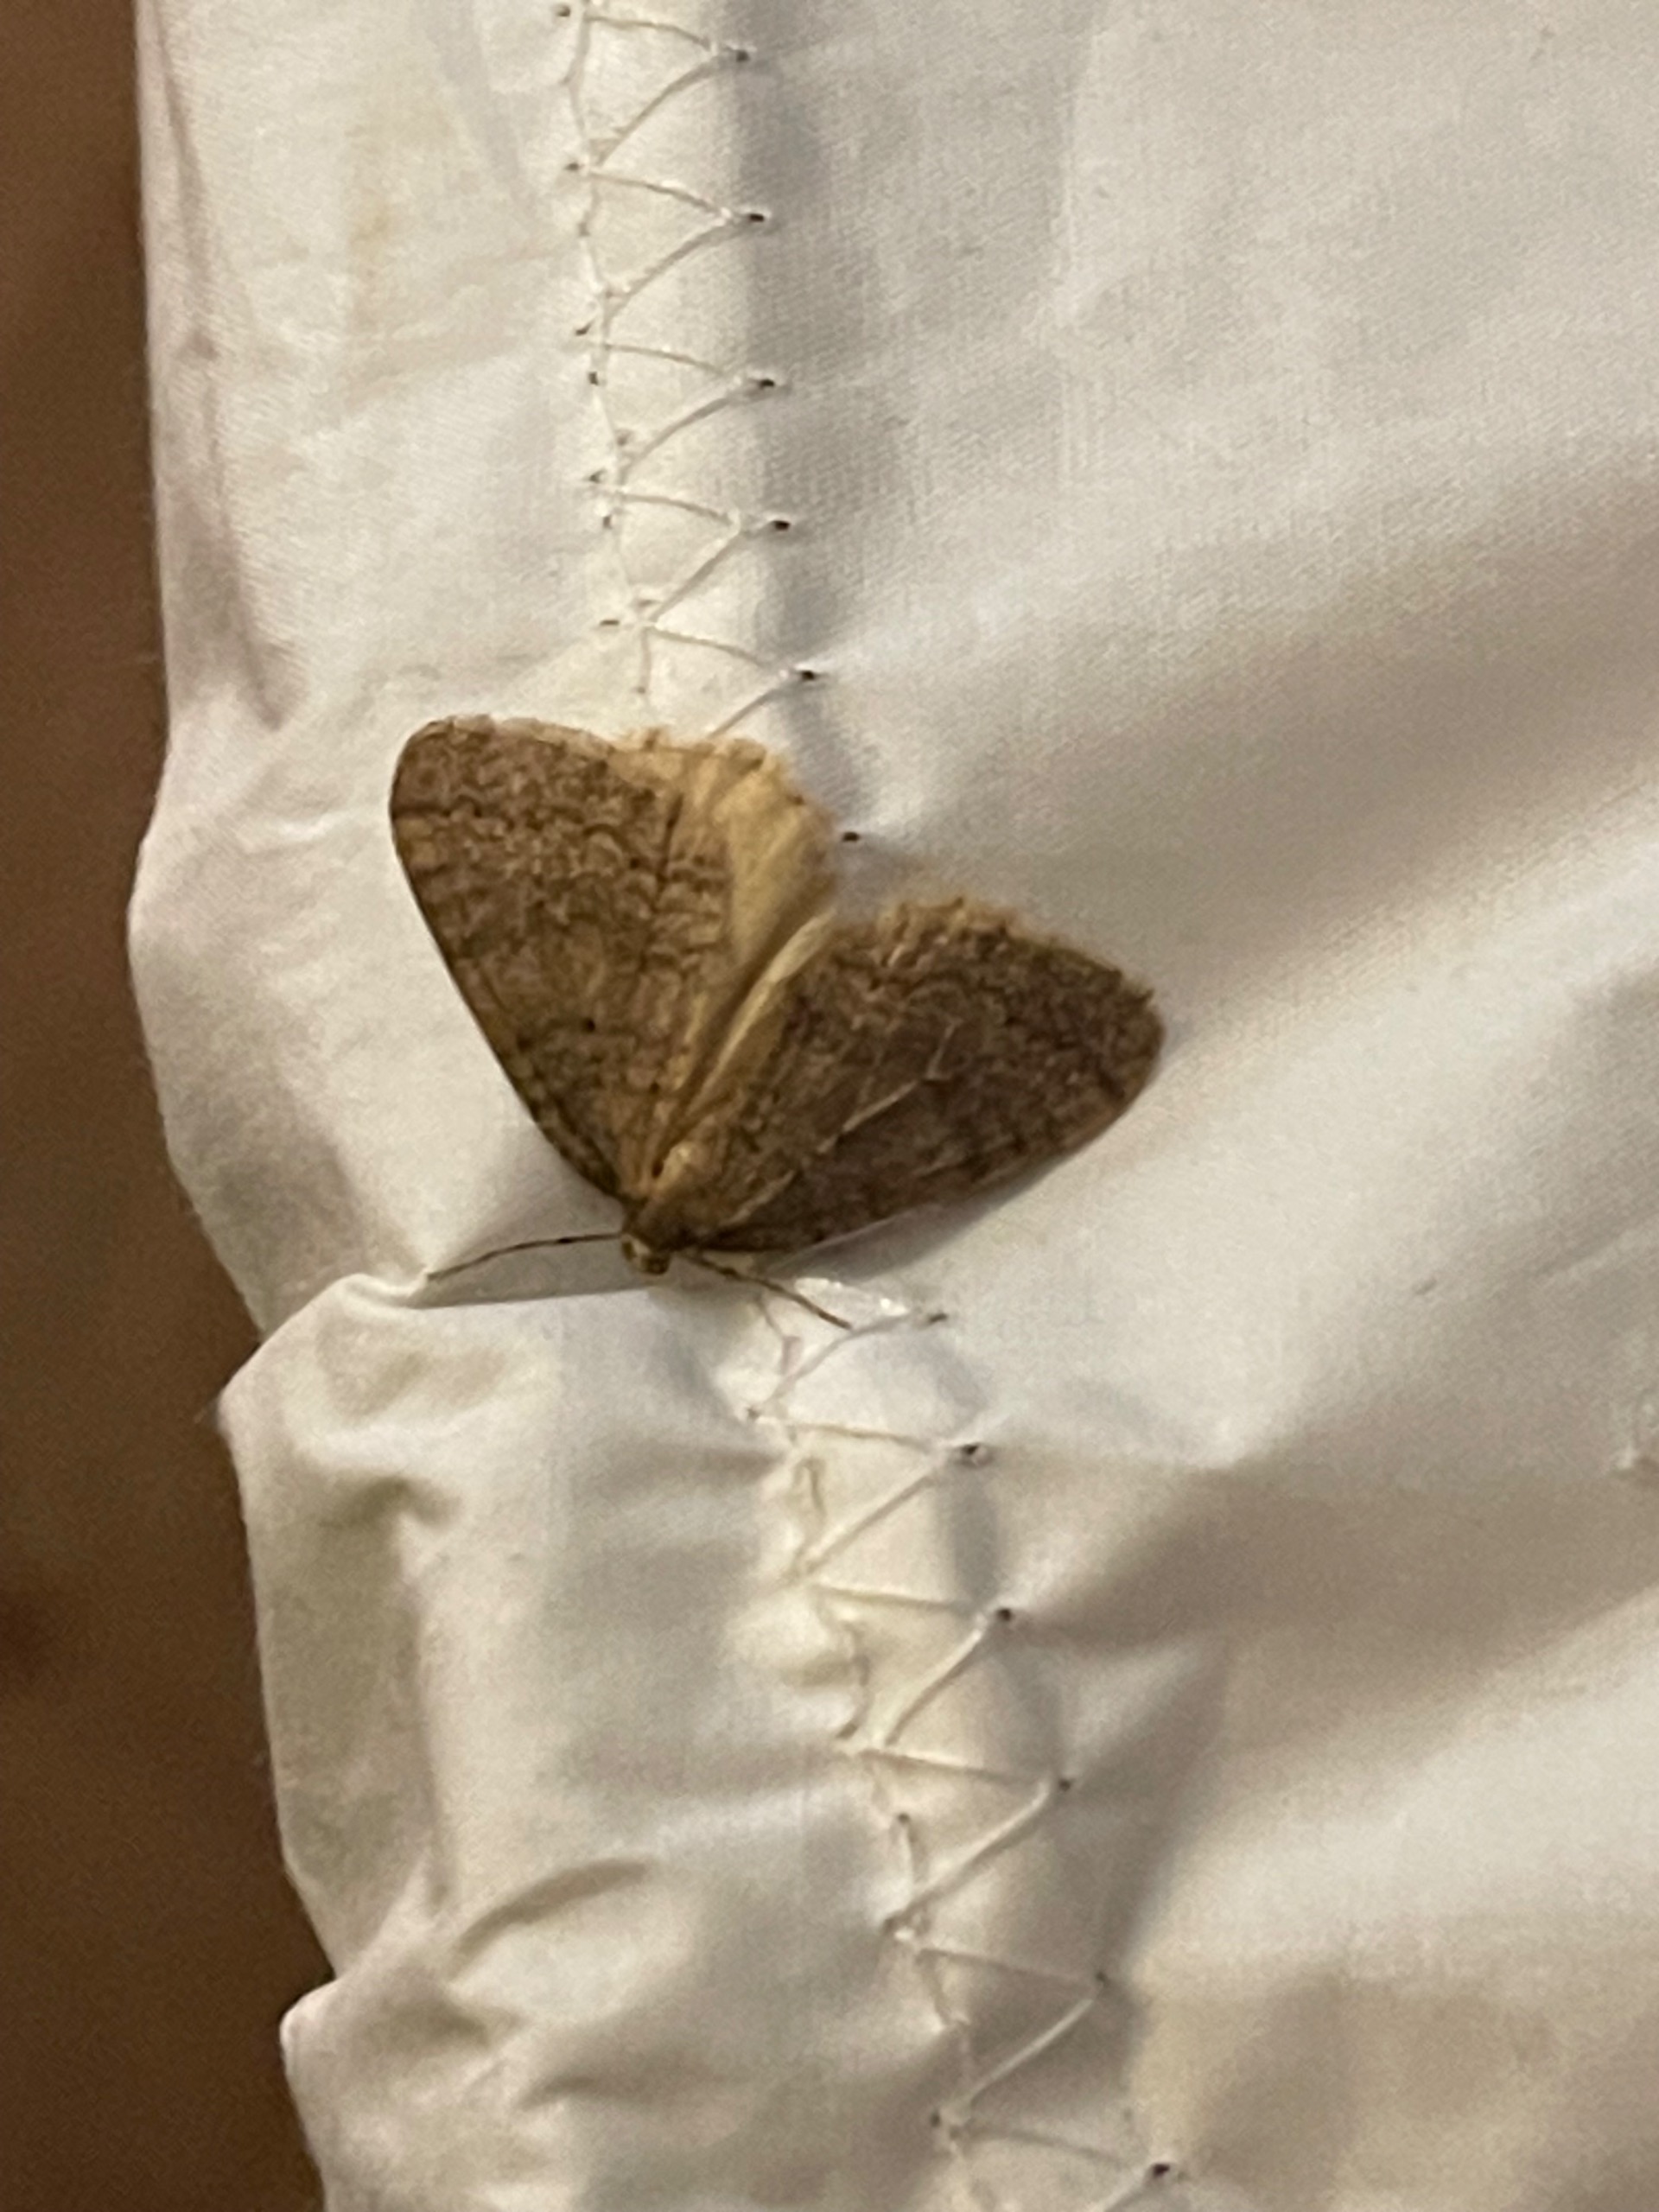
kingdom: Animalia
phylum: Arthropoda
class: Insecta
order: Lepidoptera
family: Geometridae
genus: Operophtera
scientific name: Operophtera brumata
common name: Lille frostmåler
